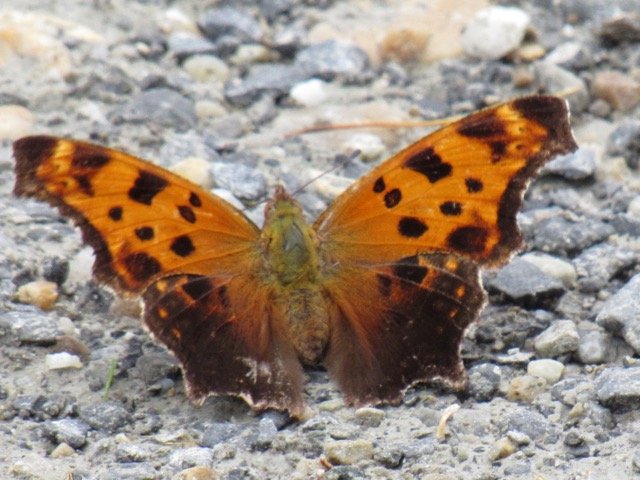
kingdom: Animalia
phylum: Arthropoda
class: Insecta
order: Lepidoptera
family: Nymphalidae
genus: Polygonia
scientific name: Polygonia comma
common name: Eastern Comma
